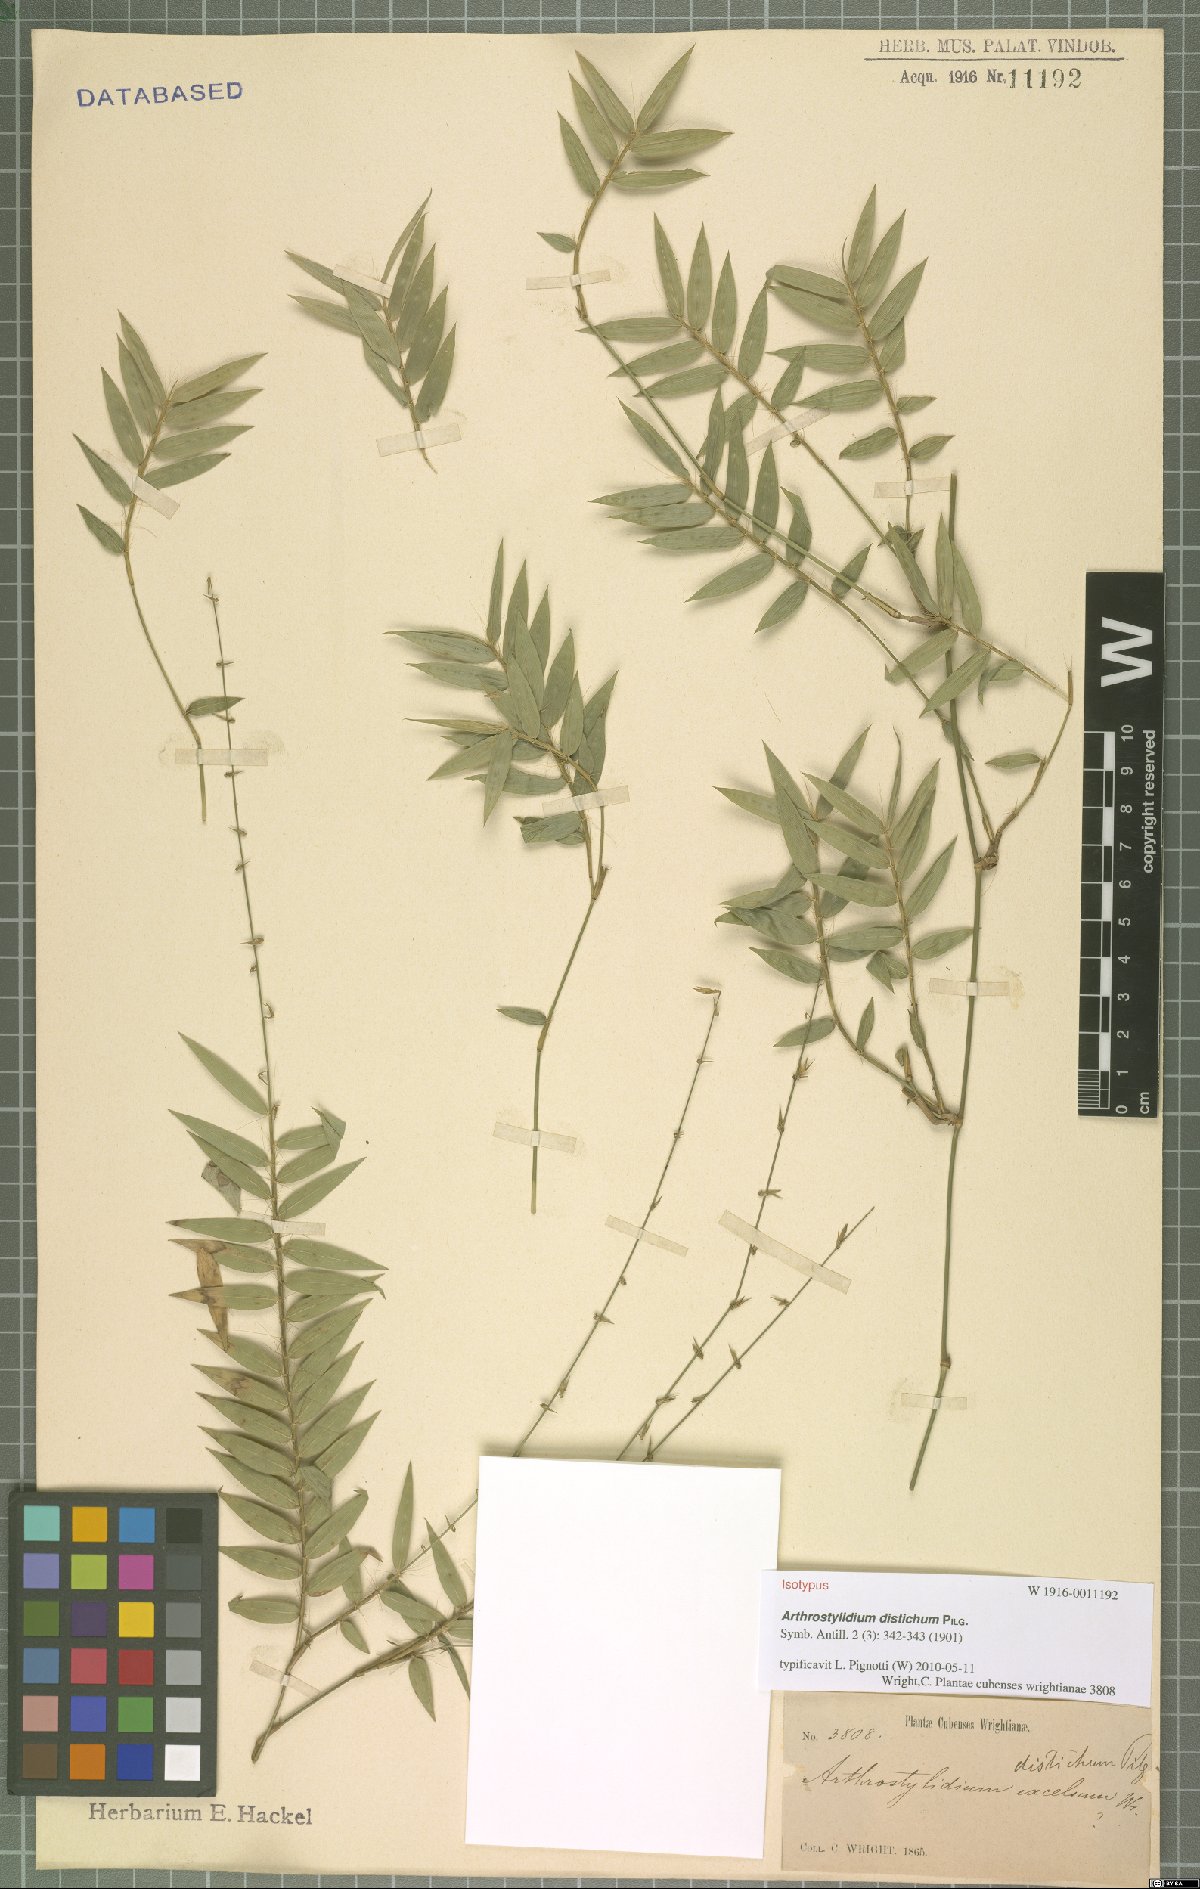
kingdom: Plantae
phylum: Tracheophyta
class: Liliopsida
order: Poales
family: Poaceae
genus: Arthrostylidium
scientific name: Arthrostylidium distichum
